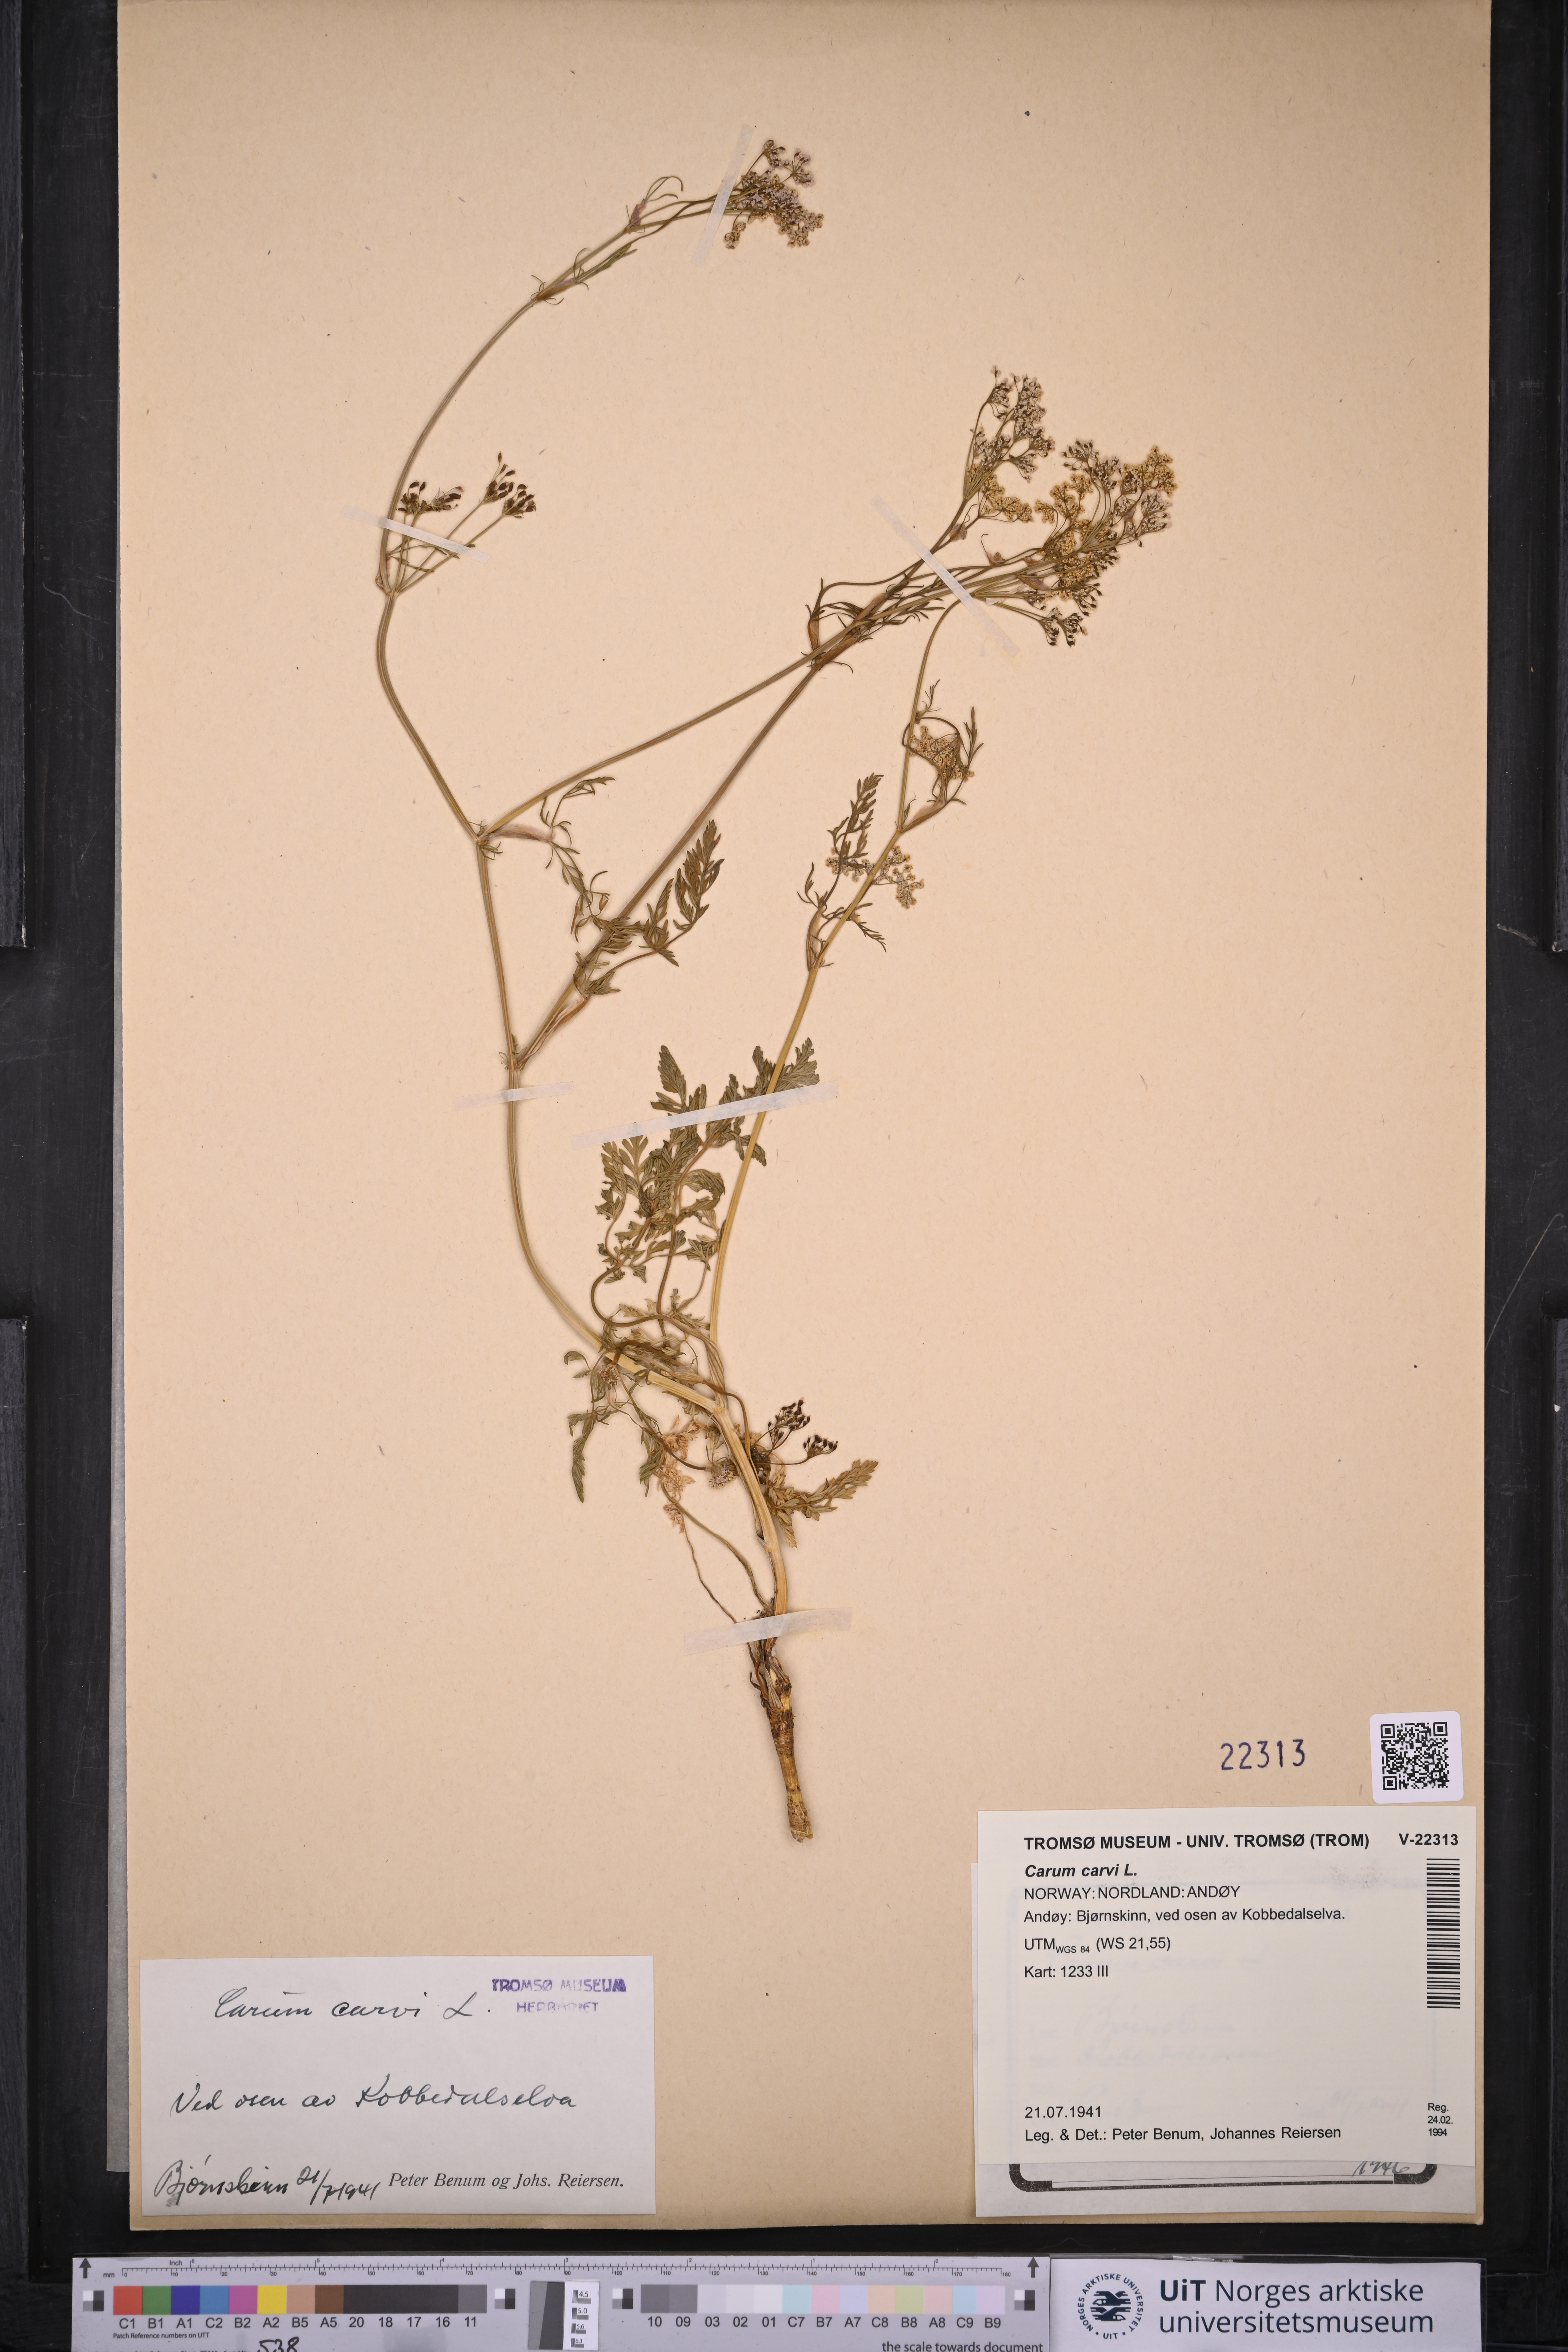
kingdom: Plantae
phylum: Tracheophyta
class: Magnoliopsida
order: Apiales
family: Apiaceae
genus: Carum
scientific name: Carum carvi
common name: Caraway
